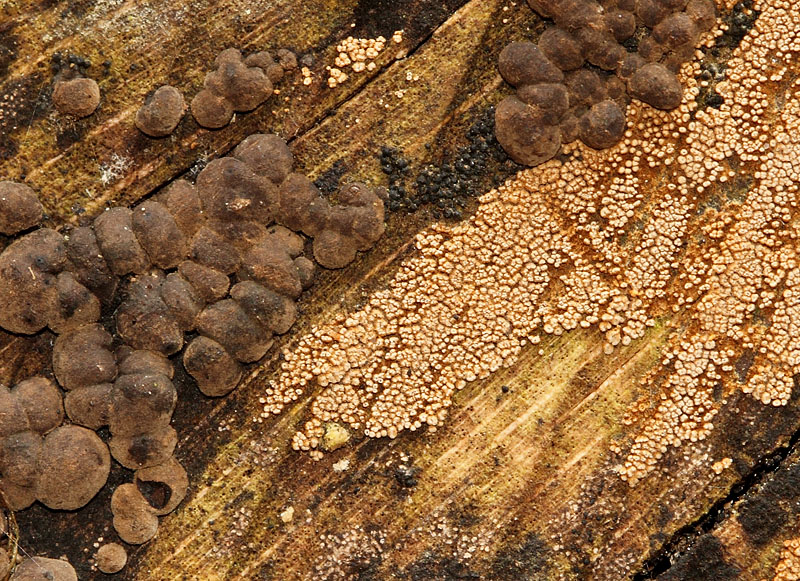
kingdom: Fungi
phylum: Basidiomycota
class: Agaricomycetes
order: Agaricales
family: Niaceae
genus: Merismodes
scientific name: Merismodes anomala
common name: almindelig læderskål
